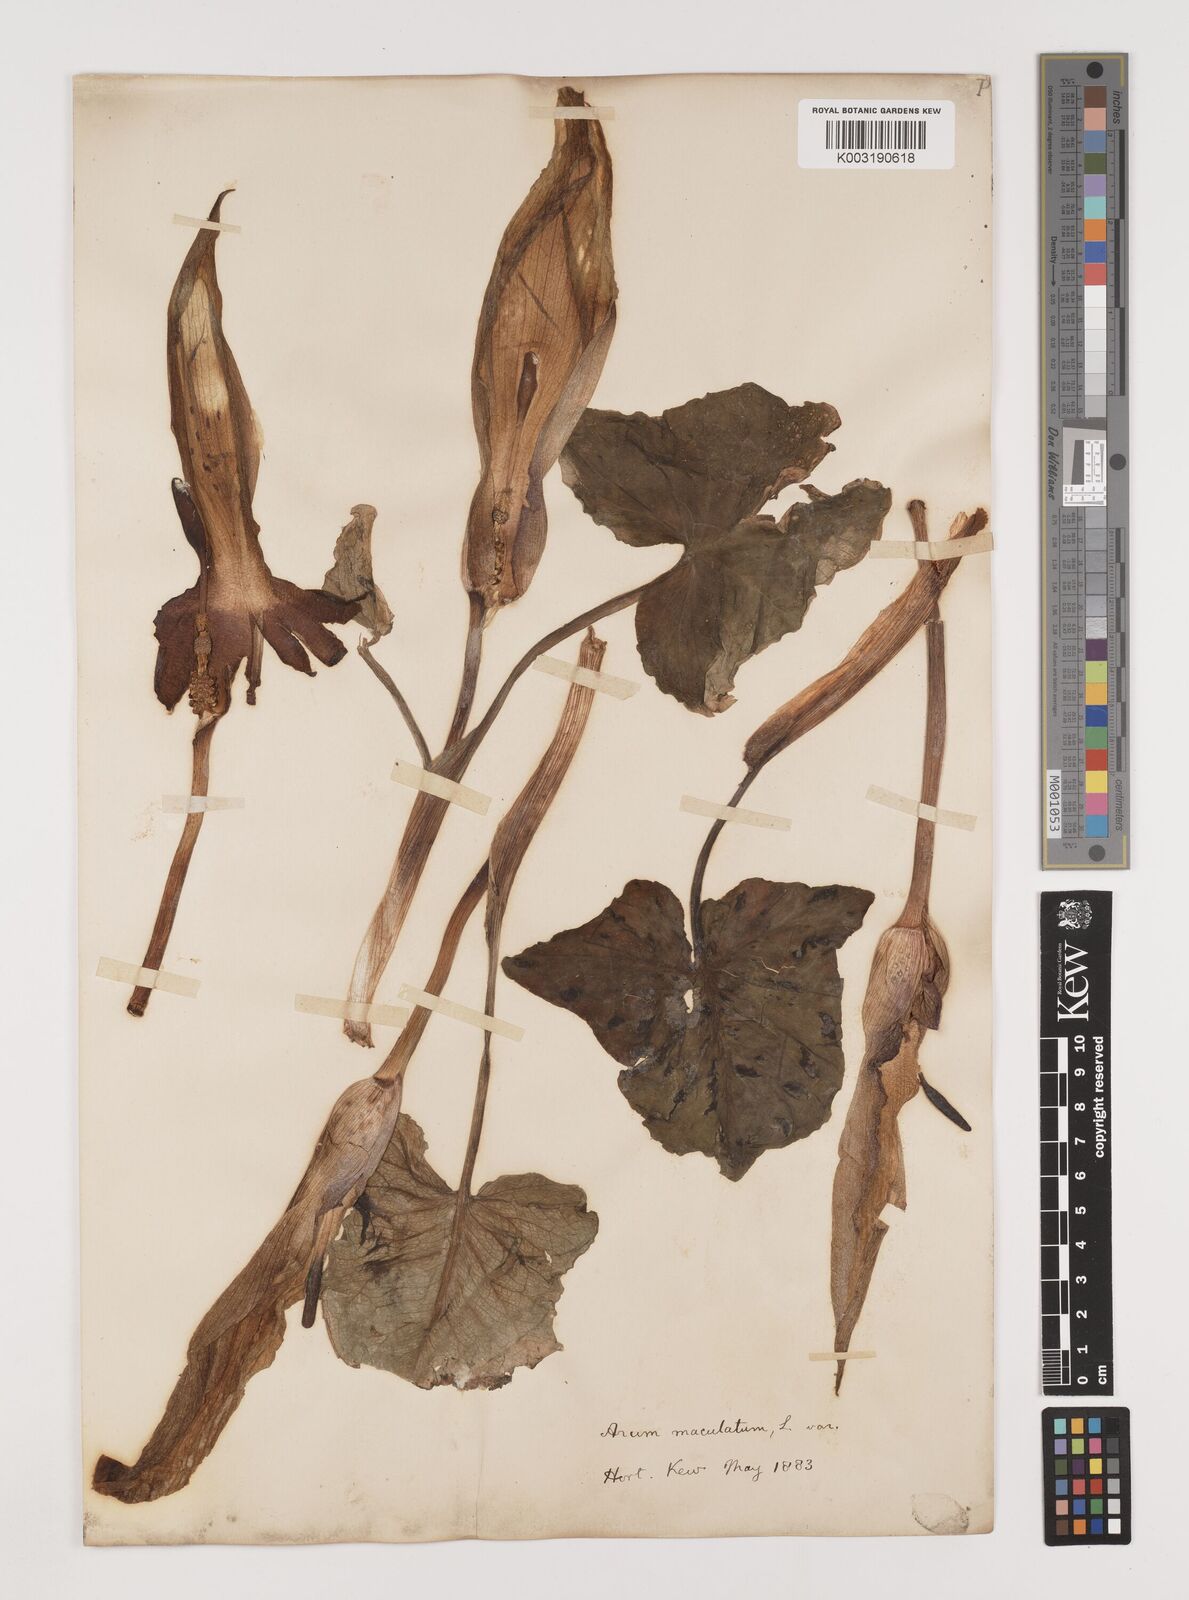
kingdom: Plantae
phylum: Tracheophyta
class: Liliopsida
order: Alismatales
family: Araceae
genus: Arum
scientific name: Arum maculatum
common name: Lords-and-ladies
